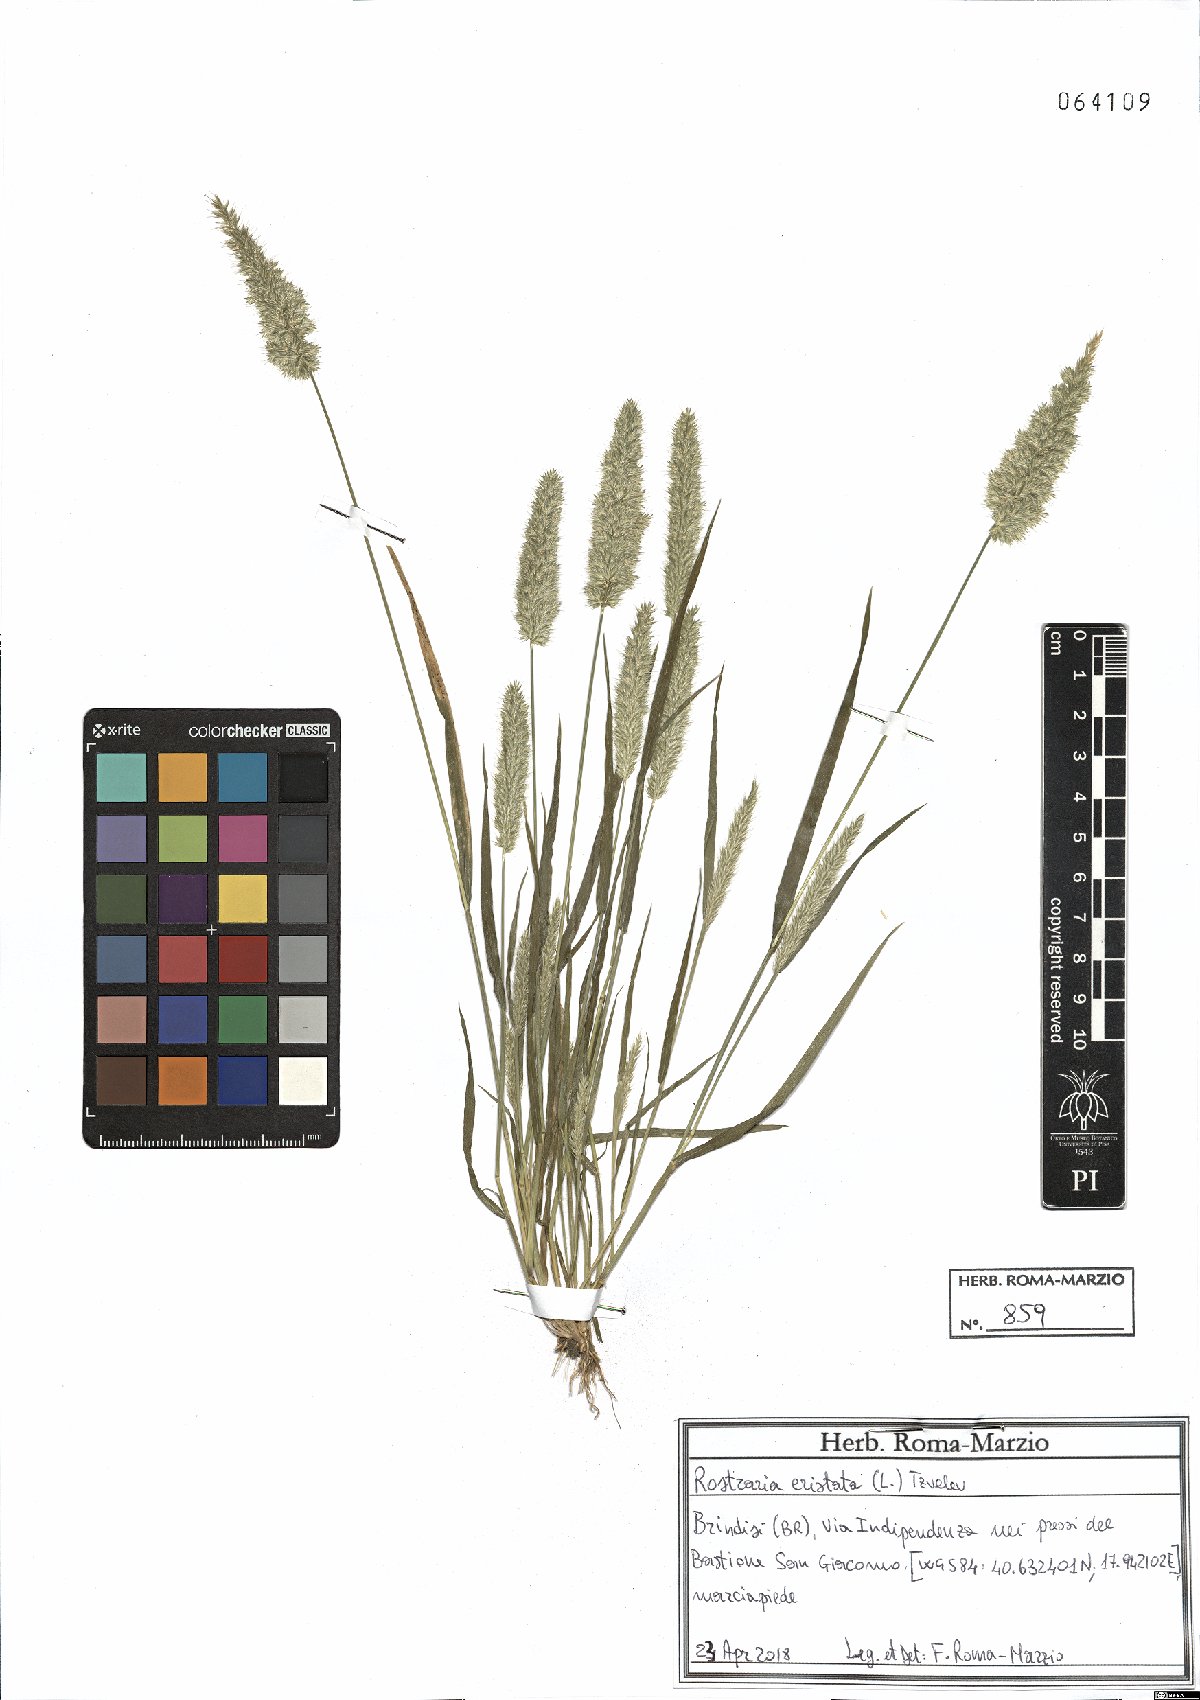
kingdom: Plantae
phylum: Tracheophyta
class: Liliopsida
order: Poales
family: Poaceae
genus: Rostraria
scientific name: Rostraria cristata
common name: Mediterranean hair-grass
